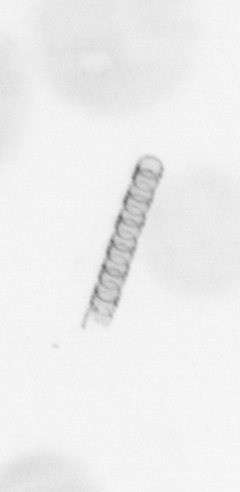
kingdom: Chromista
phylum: Ochrophyta
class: Bacillariophyceae
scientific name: Bacillariophyceae
